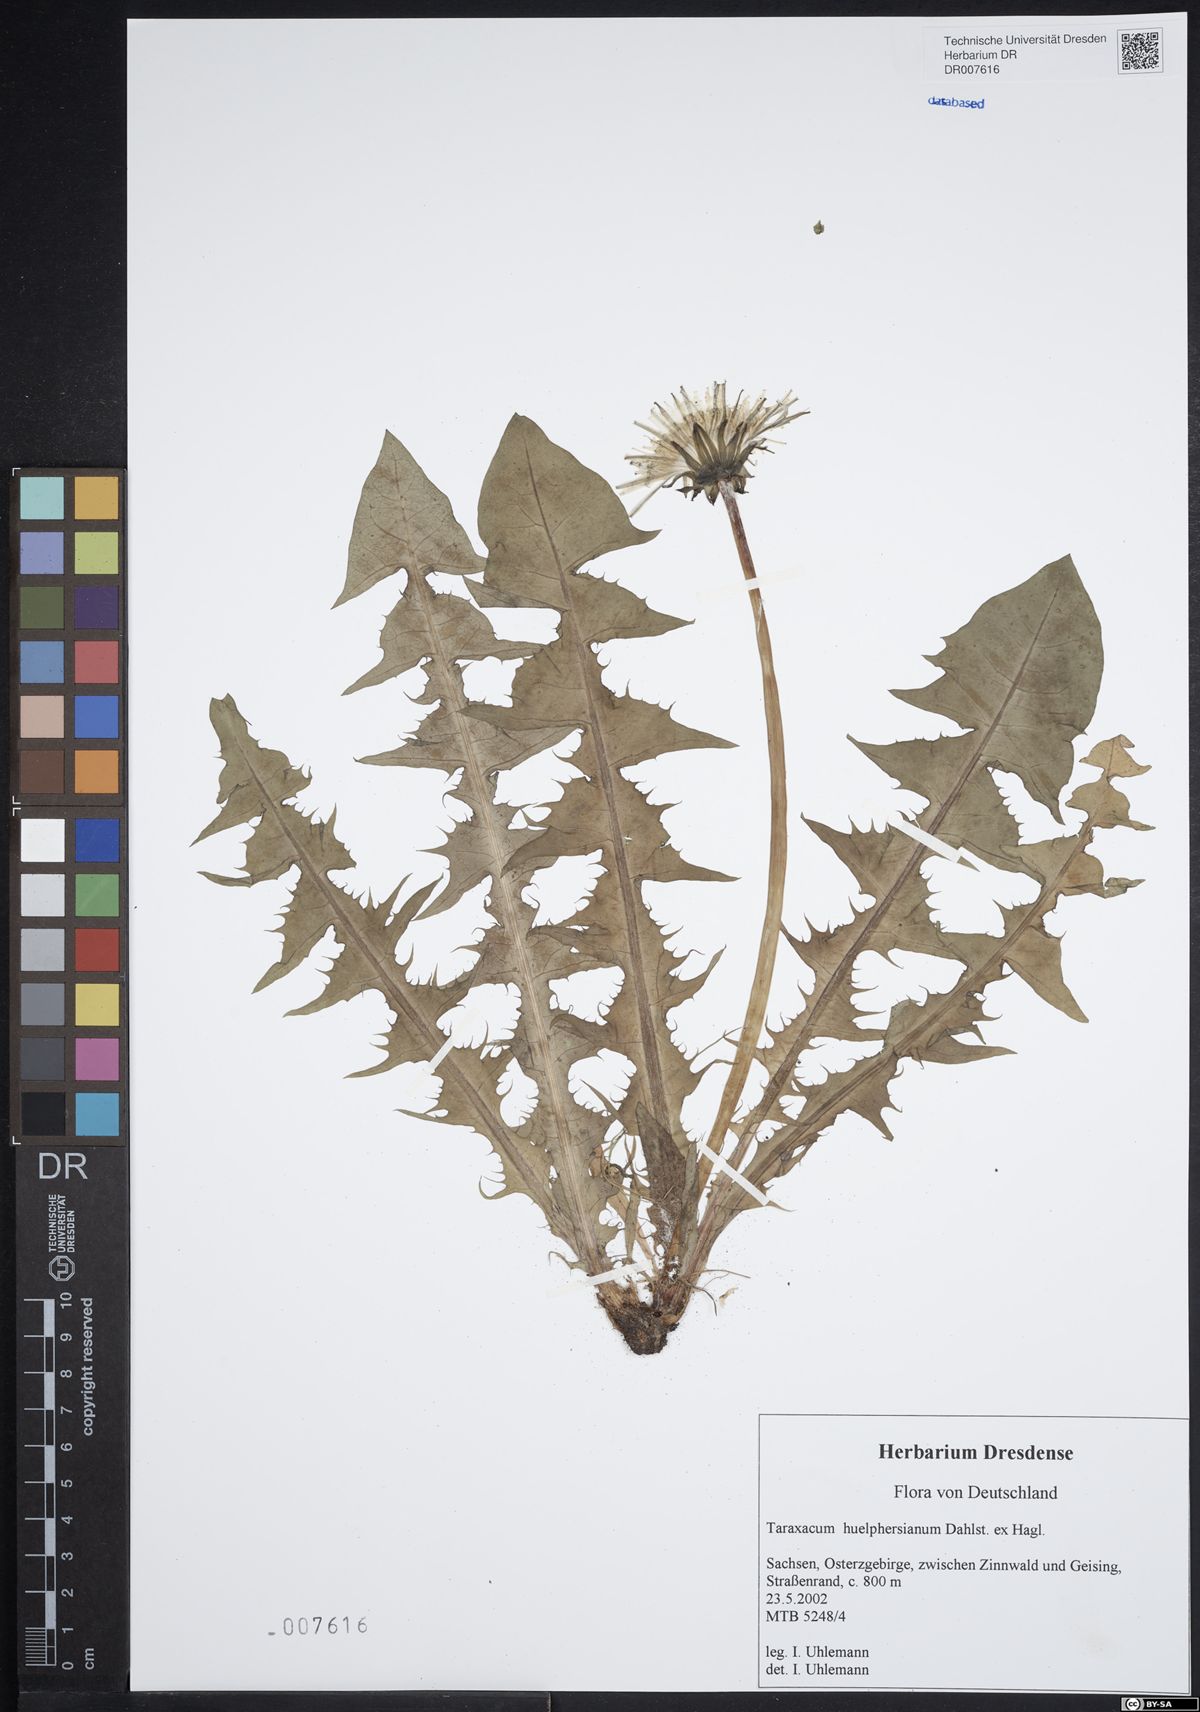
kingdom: Plantae
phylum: Tracheophyta
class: Magnoliopsida
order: Asterales
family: Asteraceae
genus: Taraxacum
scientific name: Taraxacum huelphersianum
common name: Hülphers's dandelion
